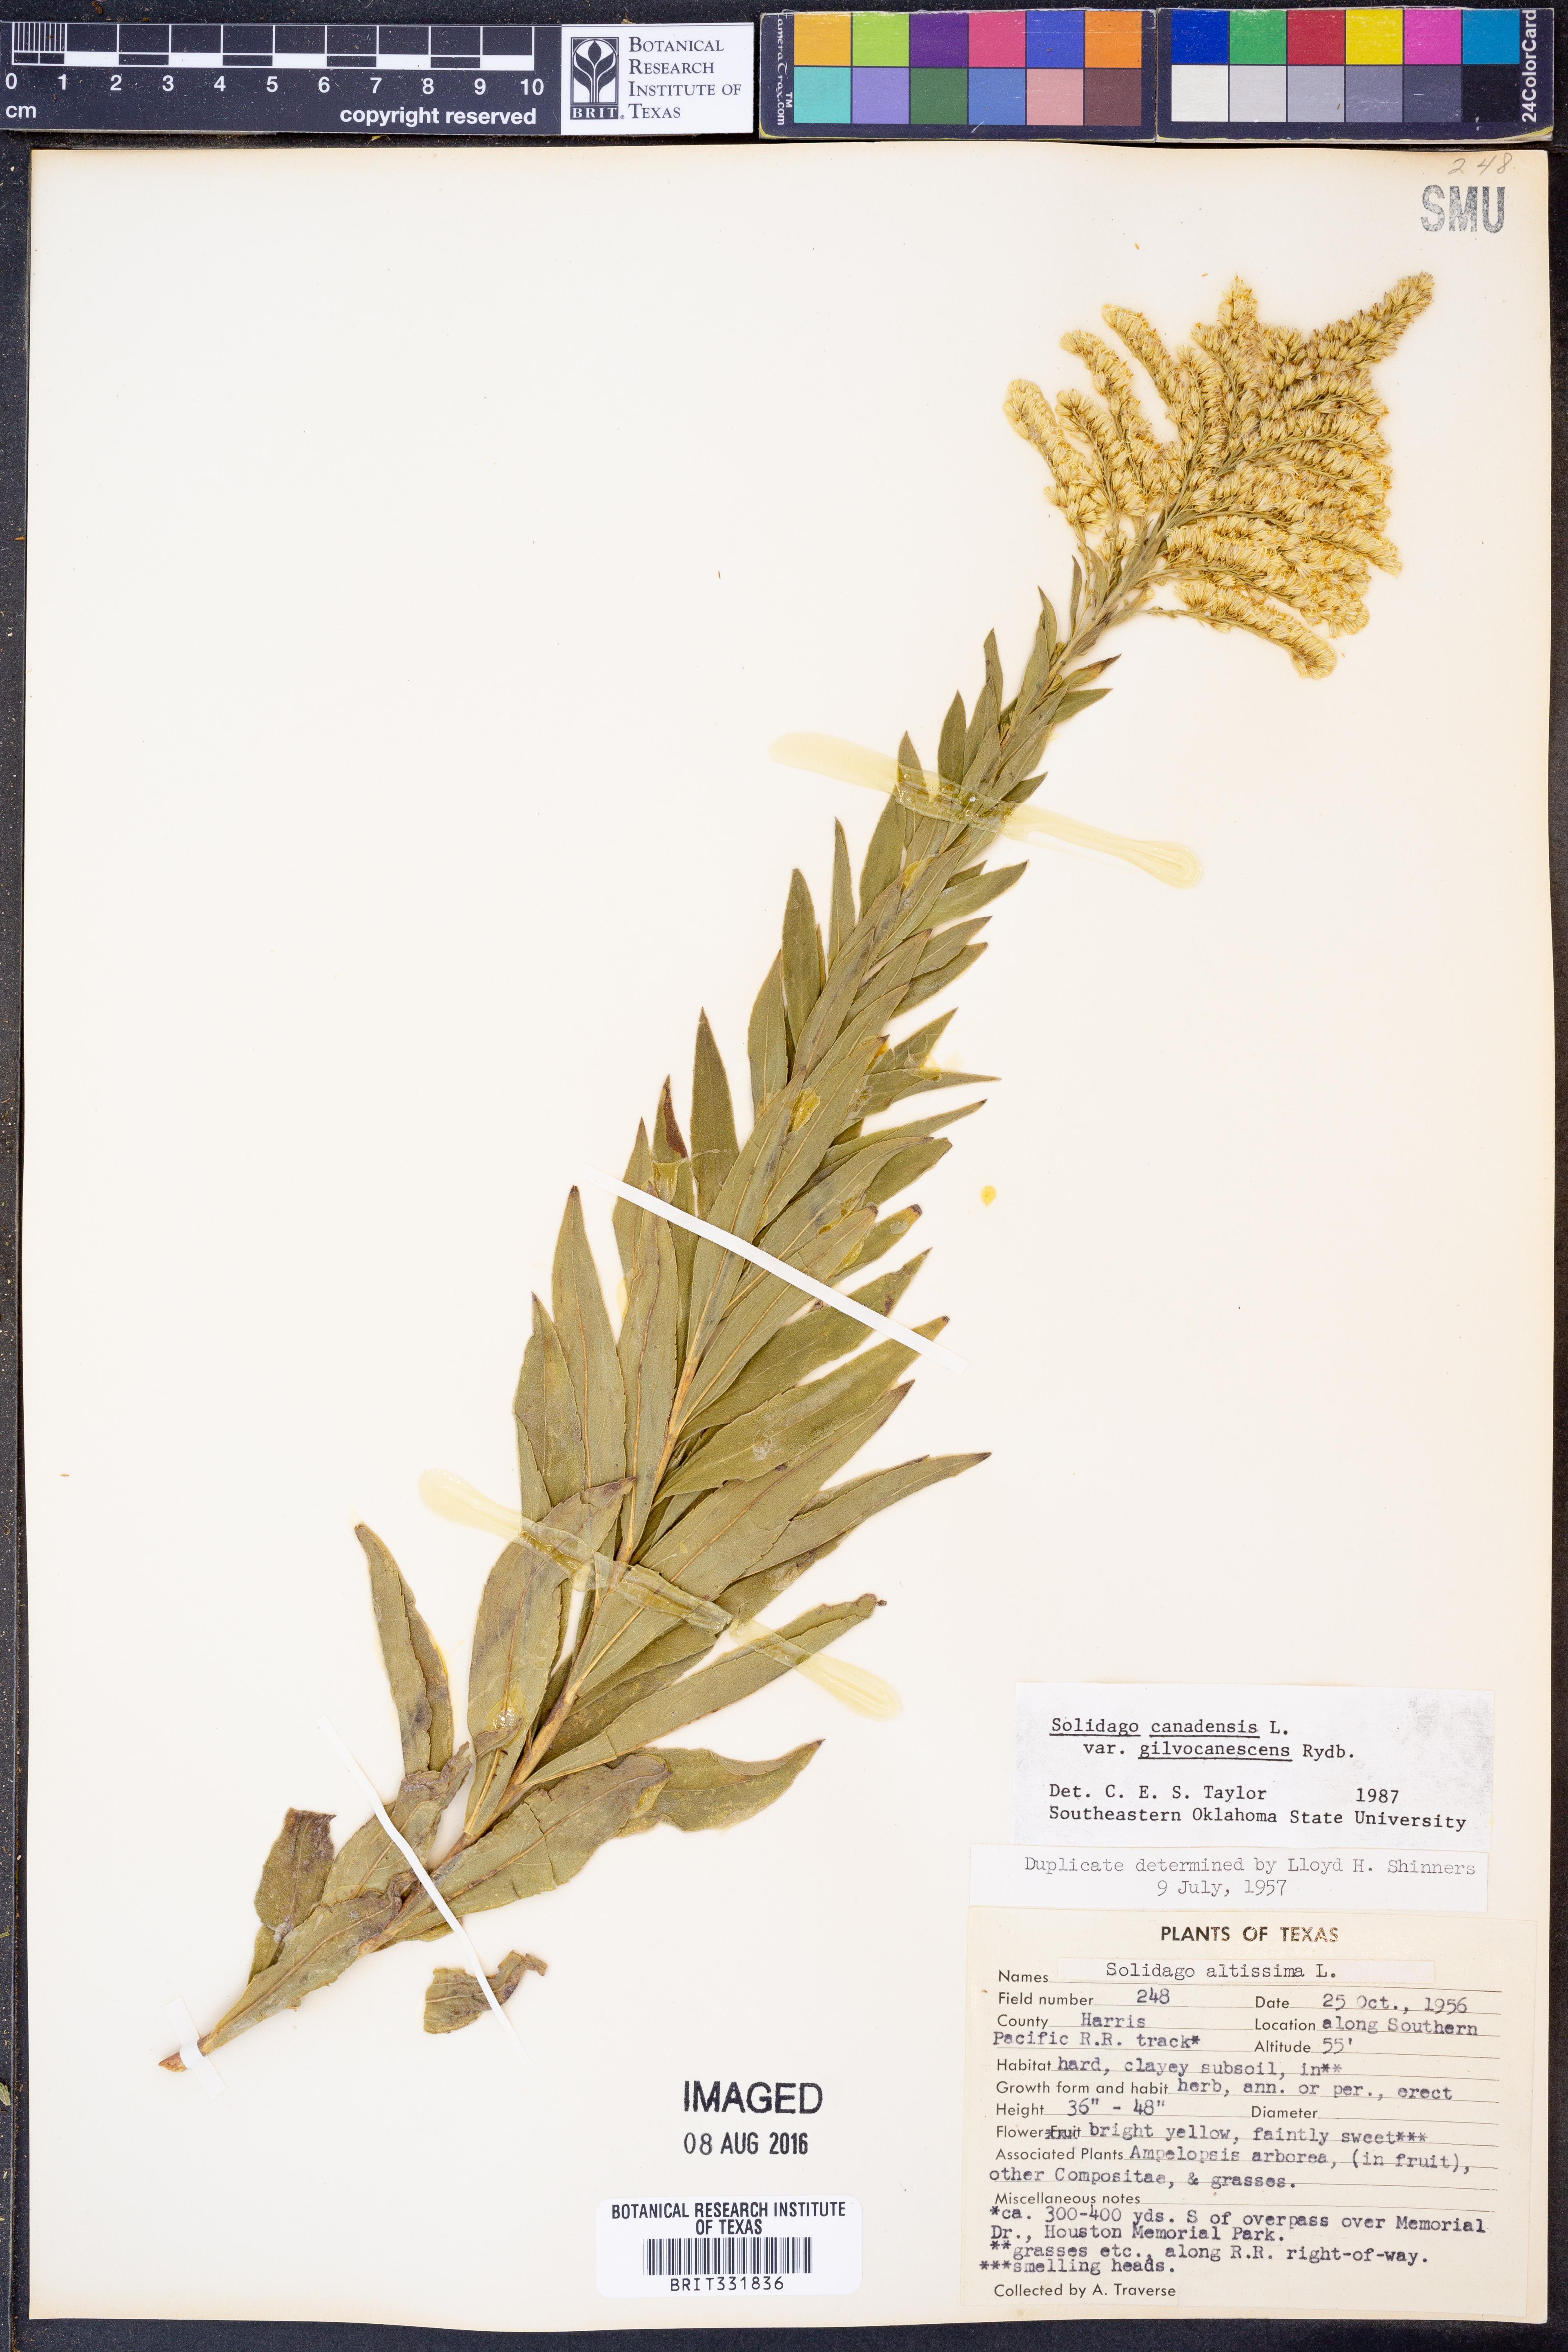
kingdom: Plantae
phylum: Tracheophyta
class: Magnoliopsida
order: Asterales
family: Asteraceae
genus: Solidago
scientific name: Solidago altissima
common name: Late goldenrod
